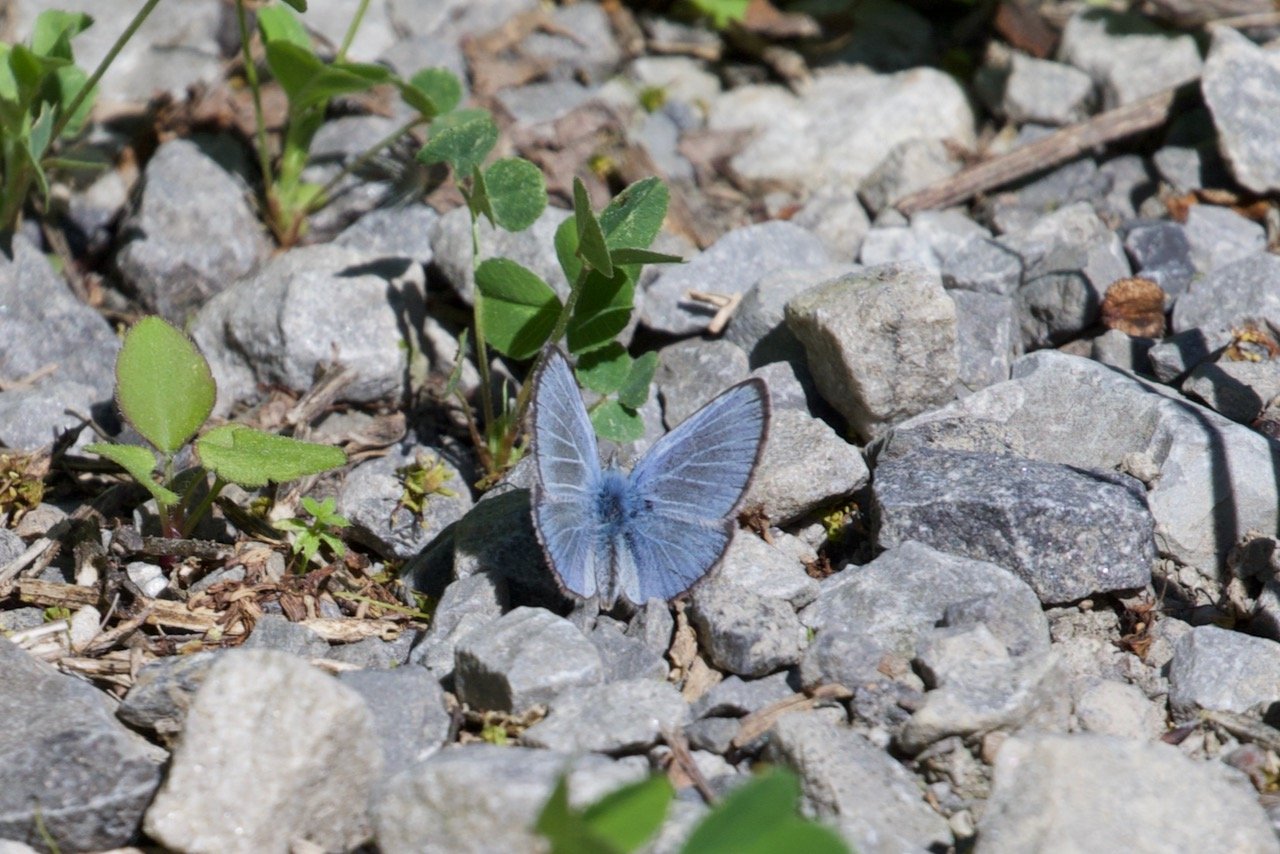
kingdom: Animalia
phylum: Arthropoda
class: Insecta
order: Lepidoptera
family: Lycaenidae
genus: Glaucopsyche
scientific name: Glaucopsyche lygdamus
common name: Silvery Blue
